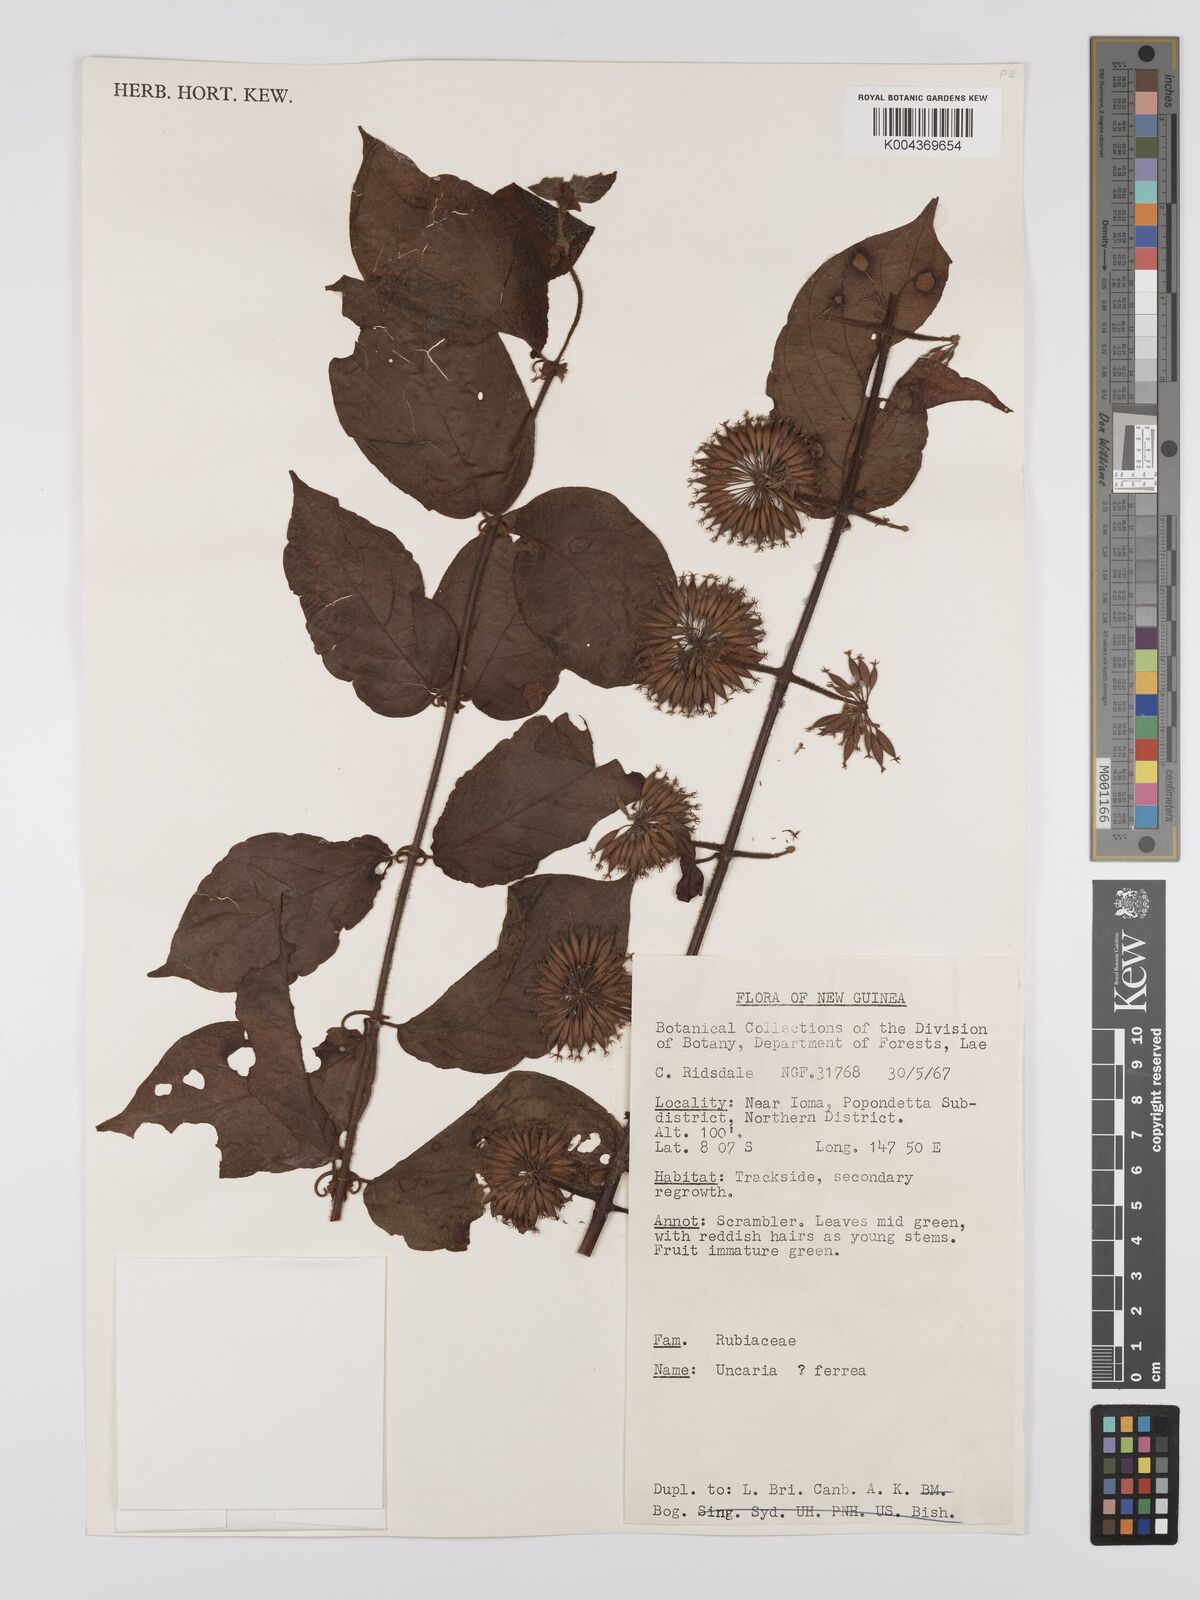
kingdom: Plantae
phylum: Tracheophyta
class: Magnoliopsida
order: Gentianales
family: Rubiaceae
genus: Uncaria
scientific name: Uncaria lanosa
